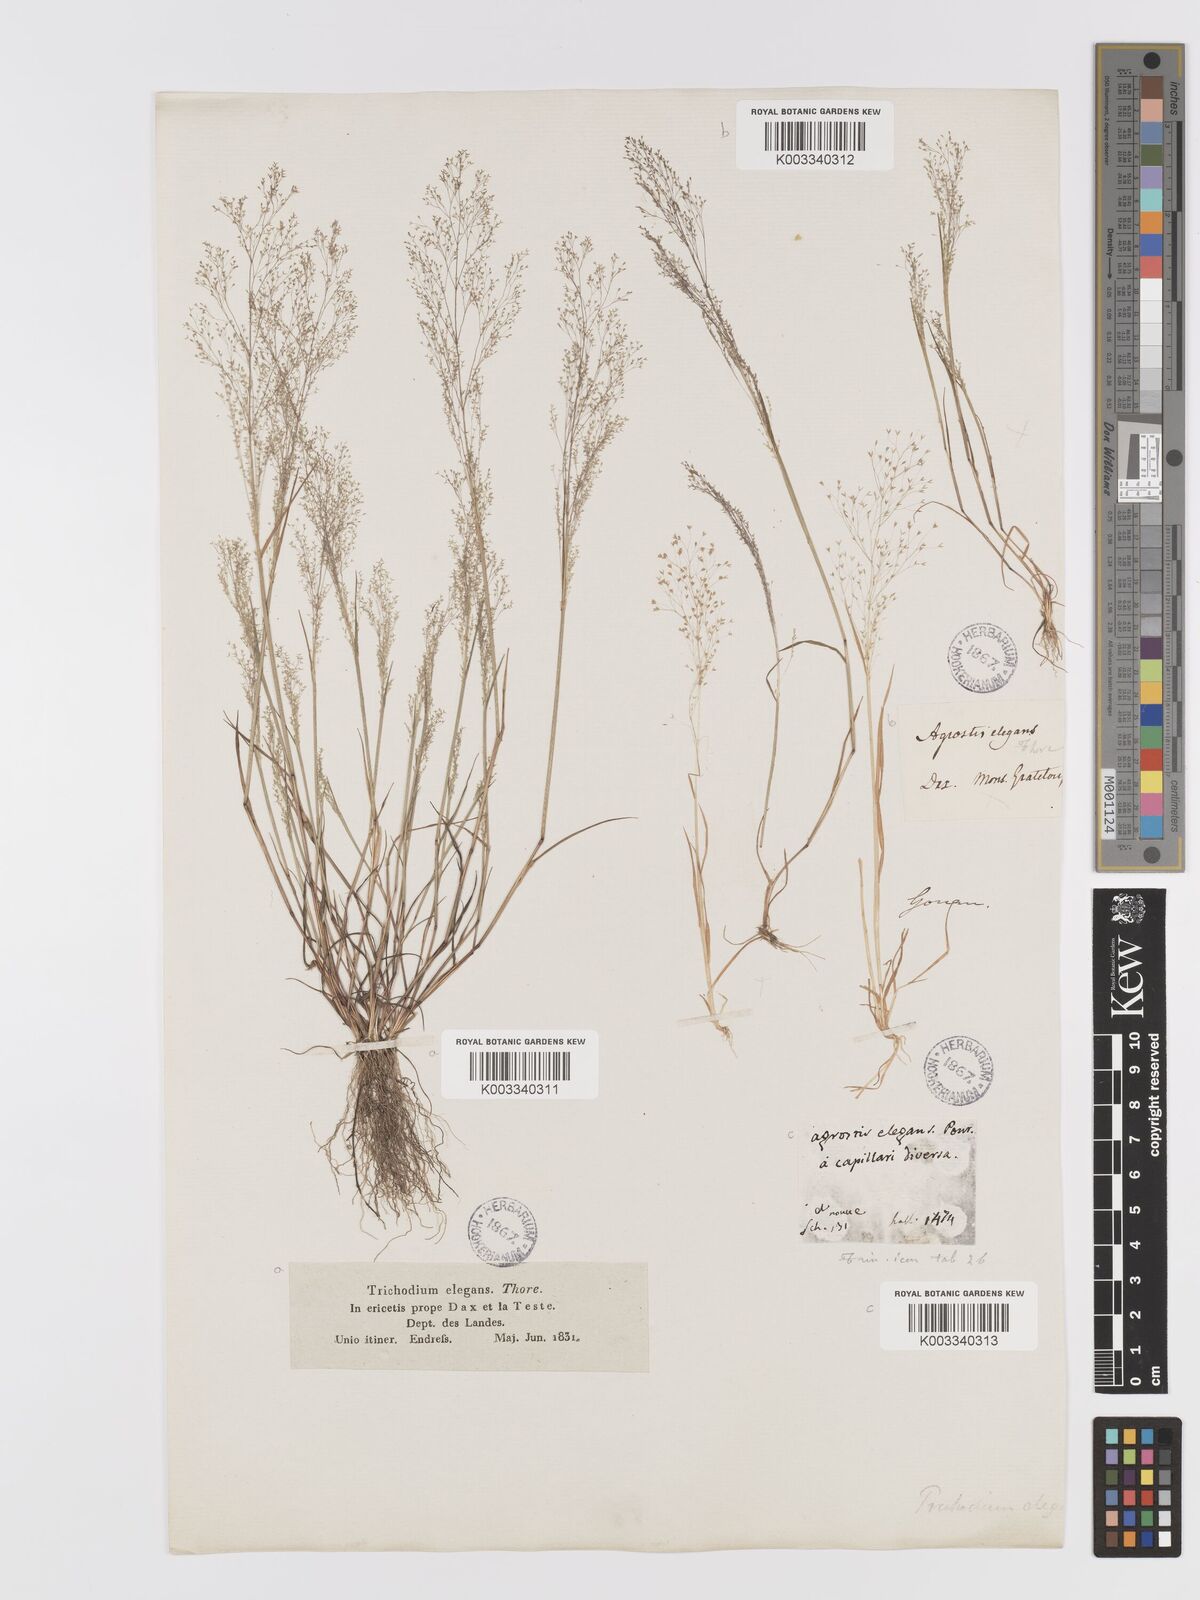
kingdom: Plantae
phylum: Tracheophyta
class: Liliopsida
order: Poales
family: Poaceae
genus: Agrostis
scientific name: Agrostis tenerrima
